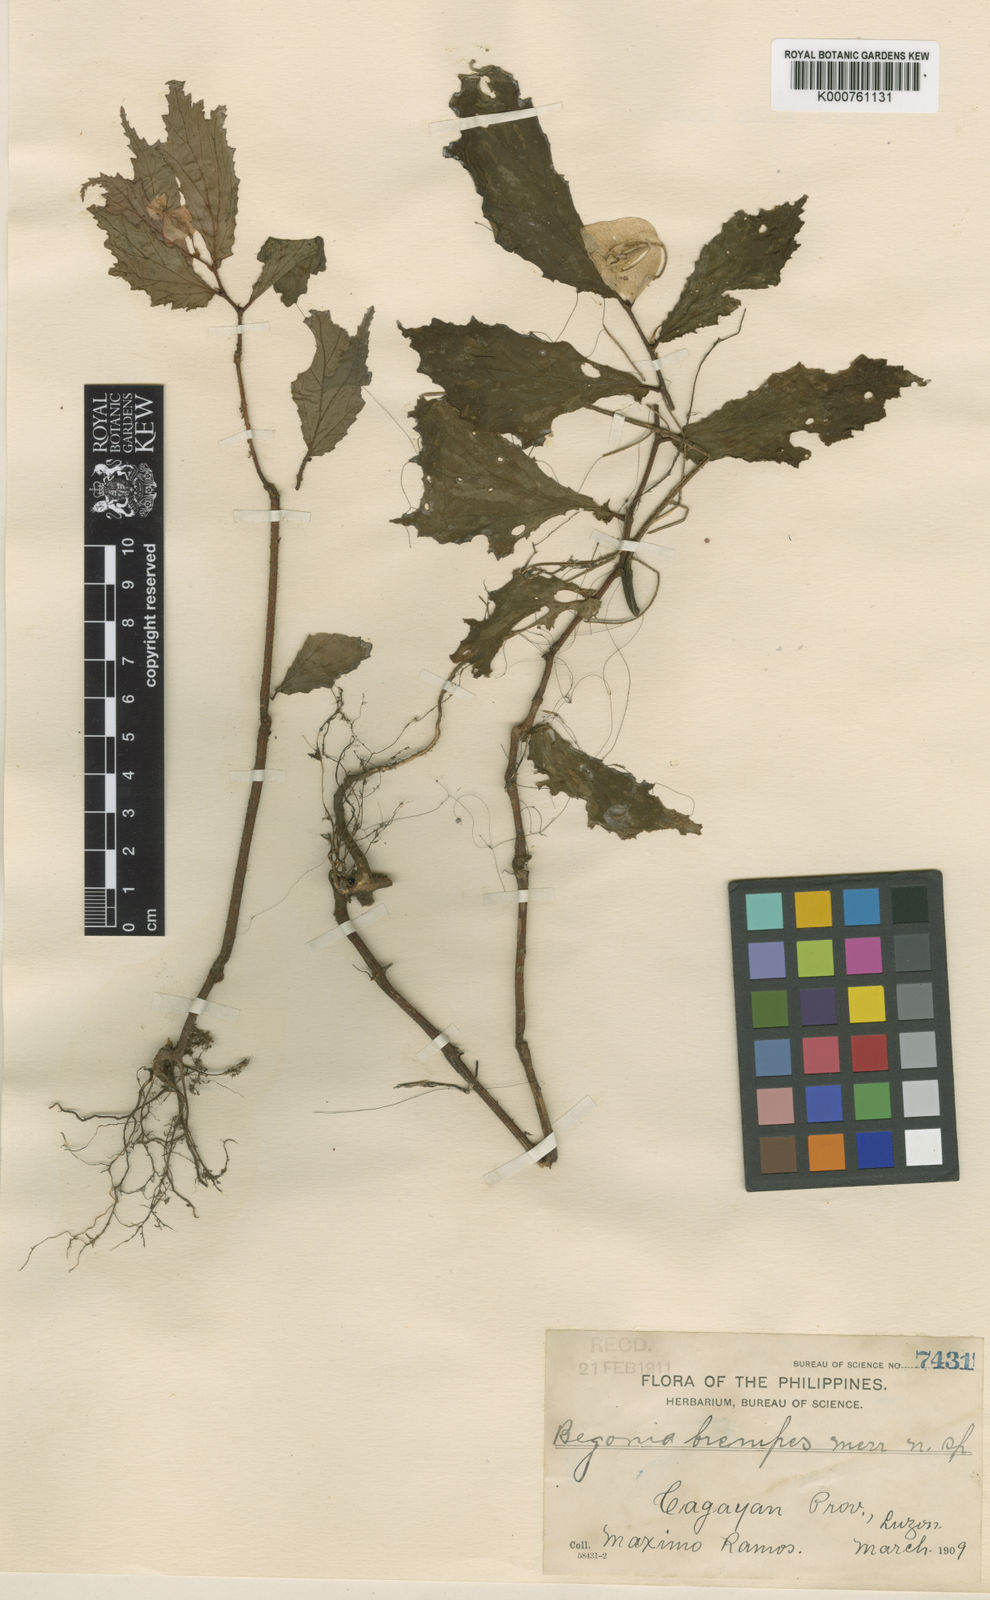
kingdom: Plantae
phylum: Tracheophyta
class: Magnoliopsida
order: Cucurbitales
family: Begoniaceae
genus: Begonia
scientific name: Begonia brevipes
